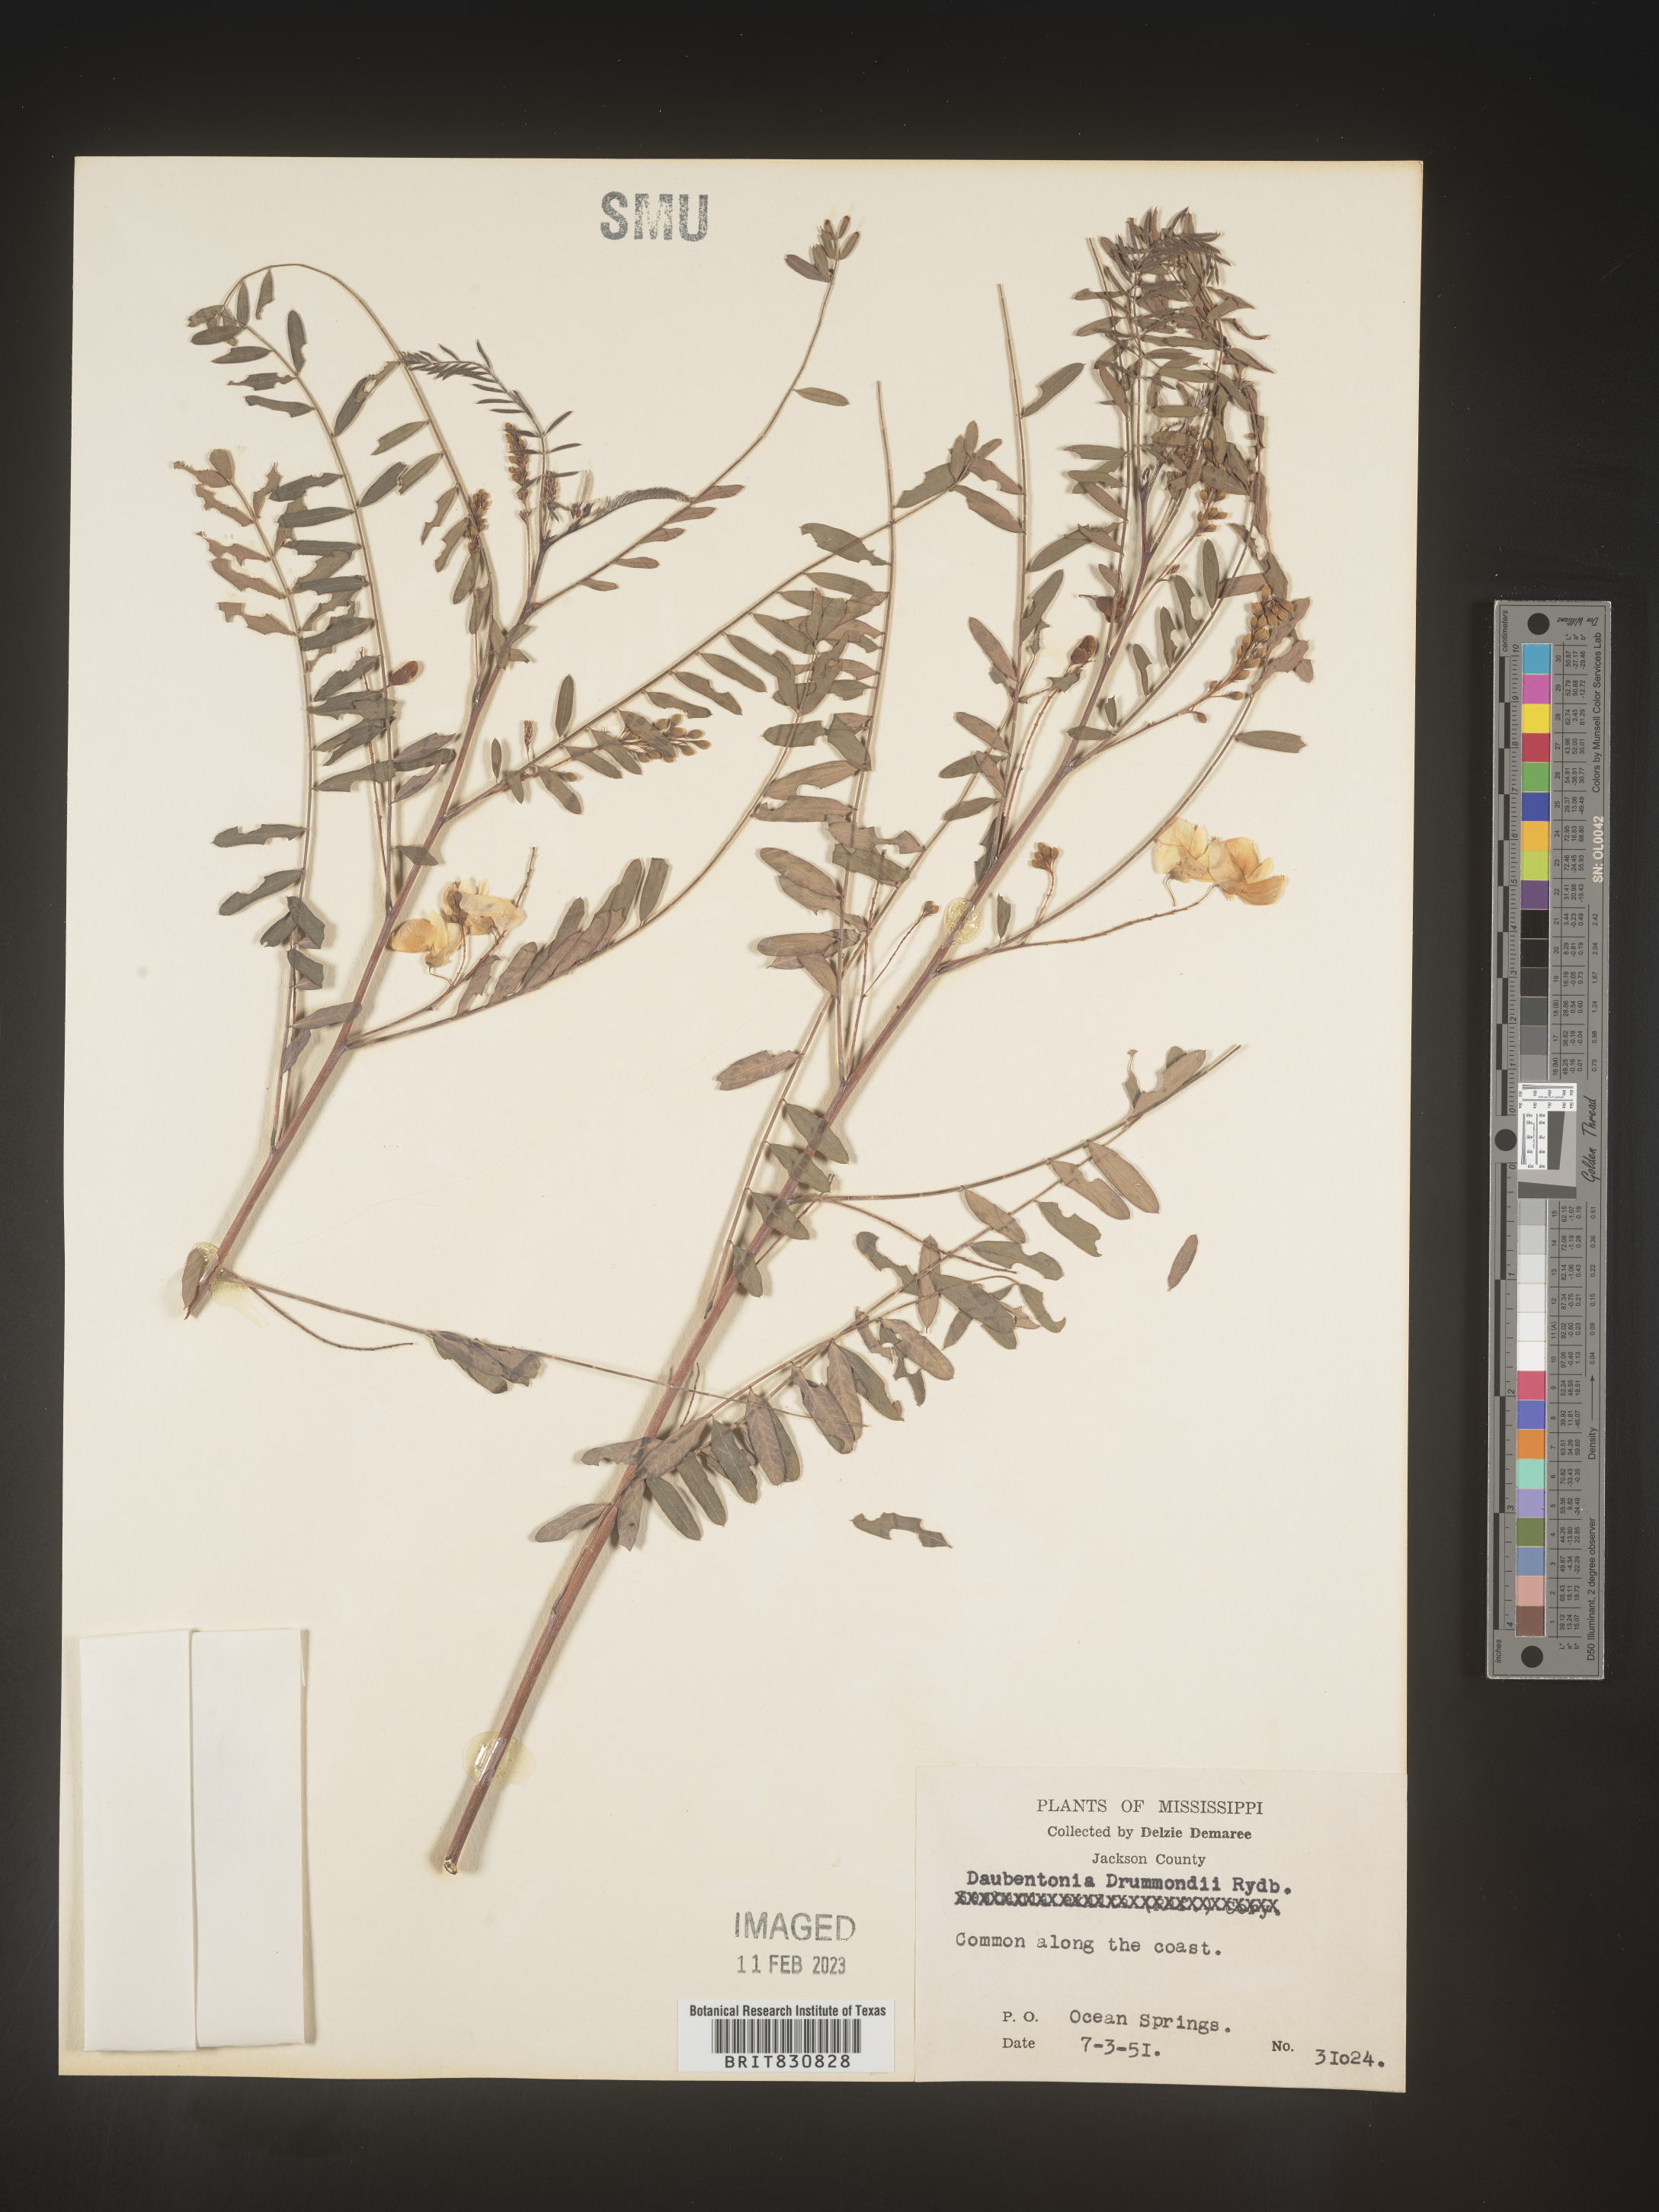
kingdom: Plantae
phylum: Tracheophyta
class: Magnoliopsida
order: Fabales
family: Fabaceae
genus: Sesbania
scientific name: Sesbania drummondii
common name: Poison-bean
